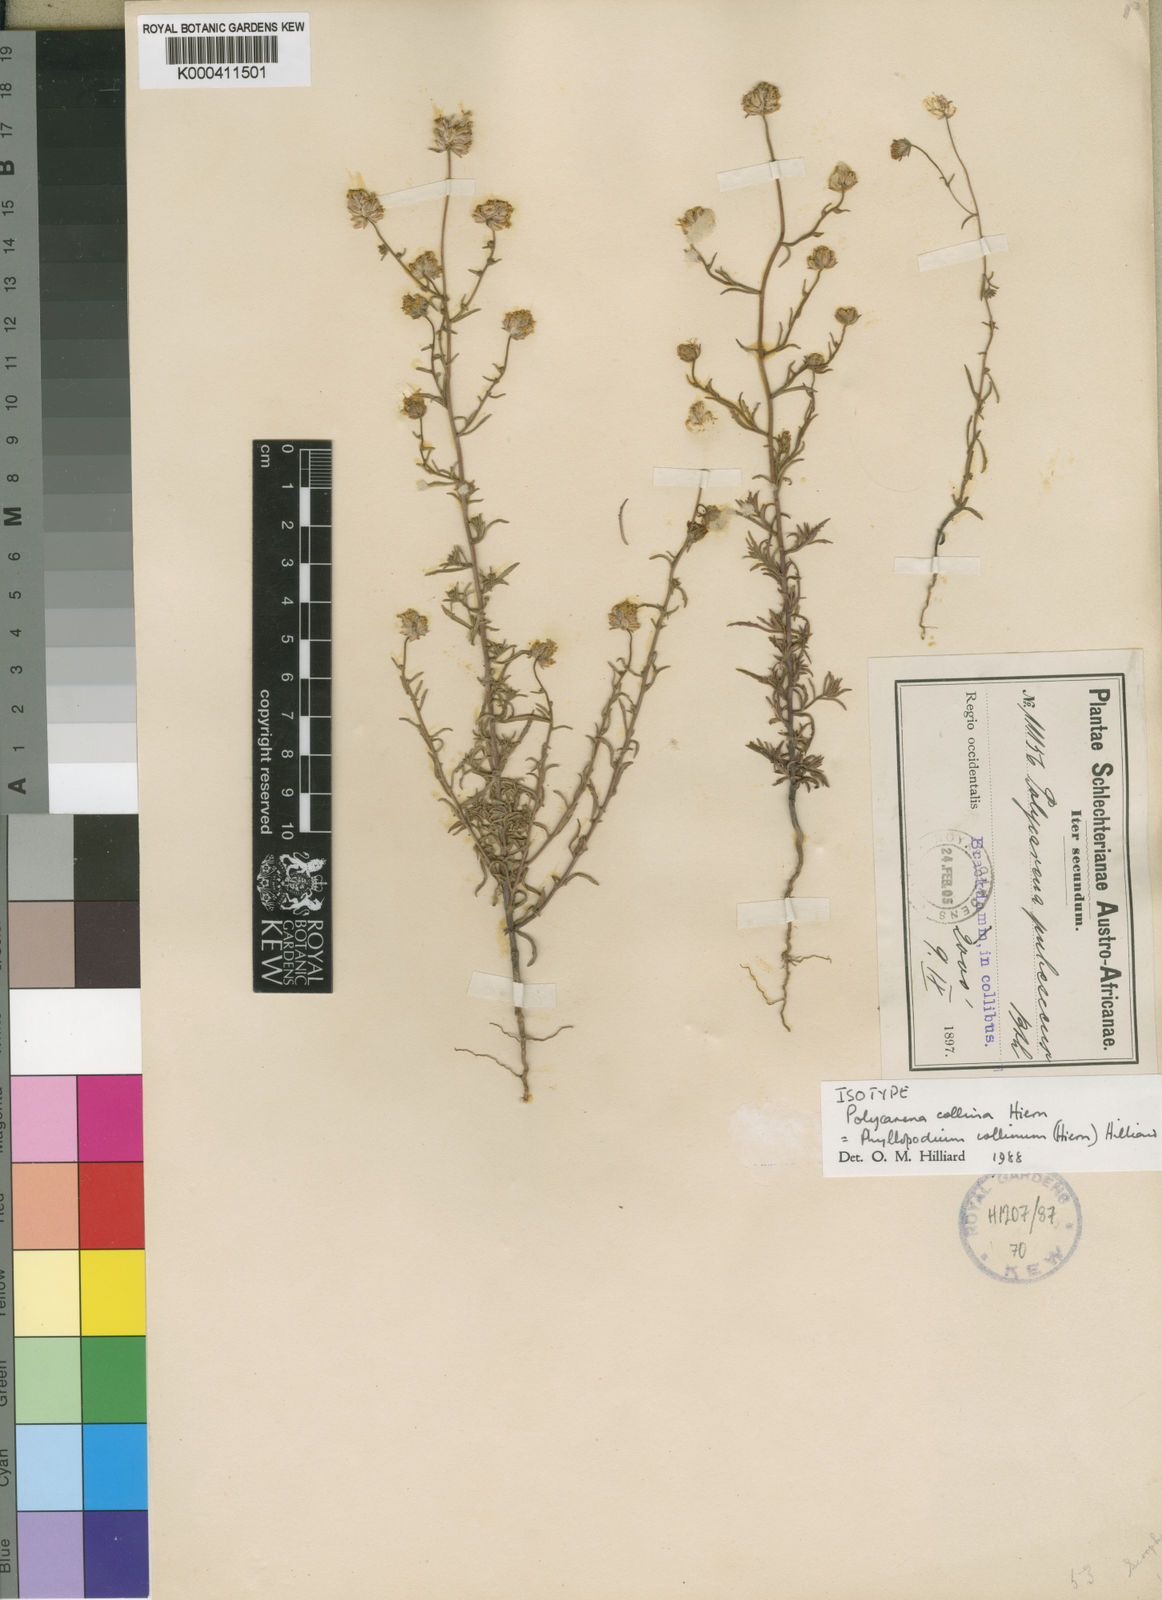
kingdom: Plantae
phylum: Tracheophyta
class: Magnoliopsida
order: Lamiales
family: Scrophulariaceae
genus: Phyllopodium
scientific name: Phyllopodium collinum
